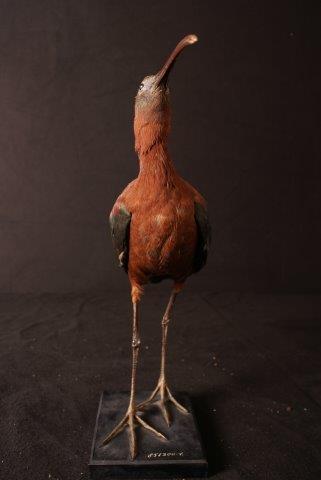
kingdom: Animalia
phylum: Chordata
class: Aves
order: Pelecaniformes
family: Threskiornithidae
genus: Plegadis
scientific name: Plegadis falcinellus
